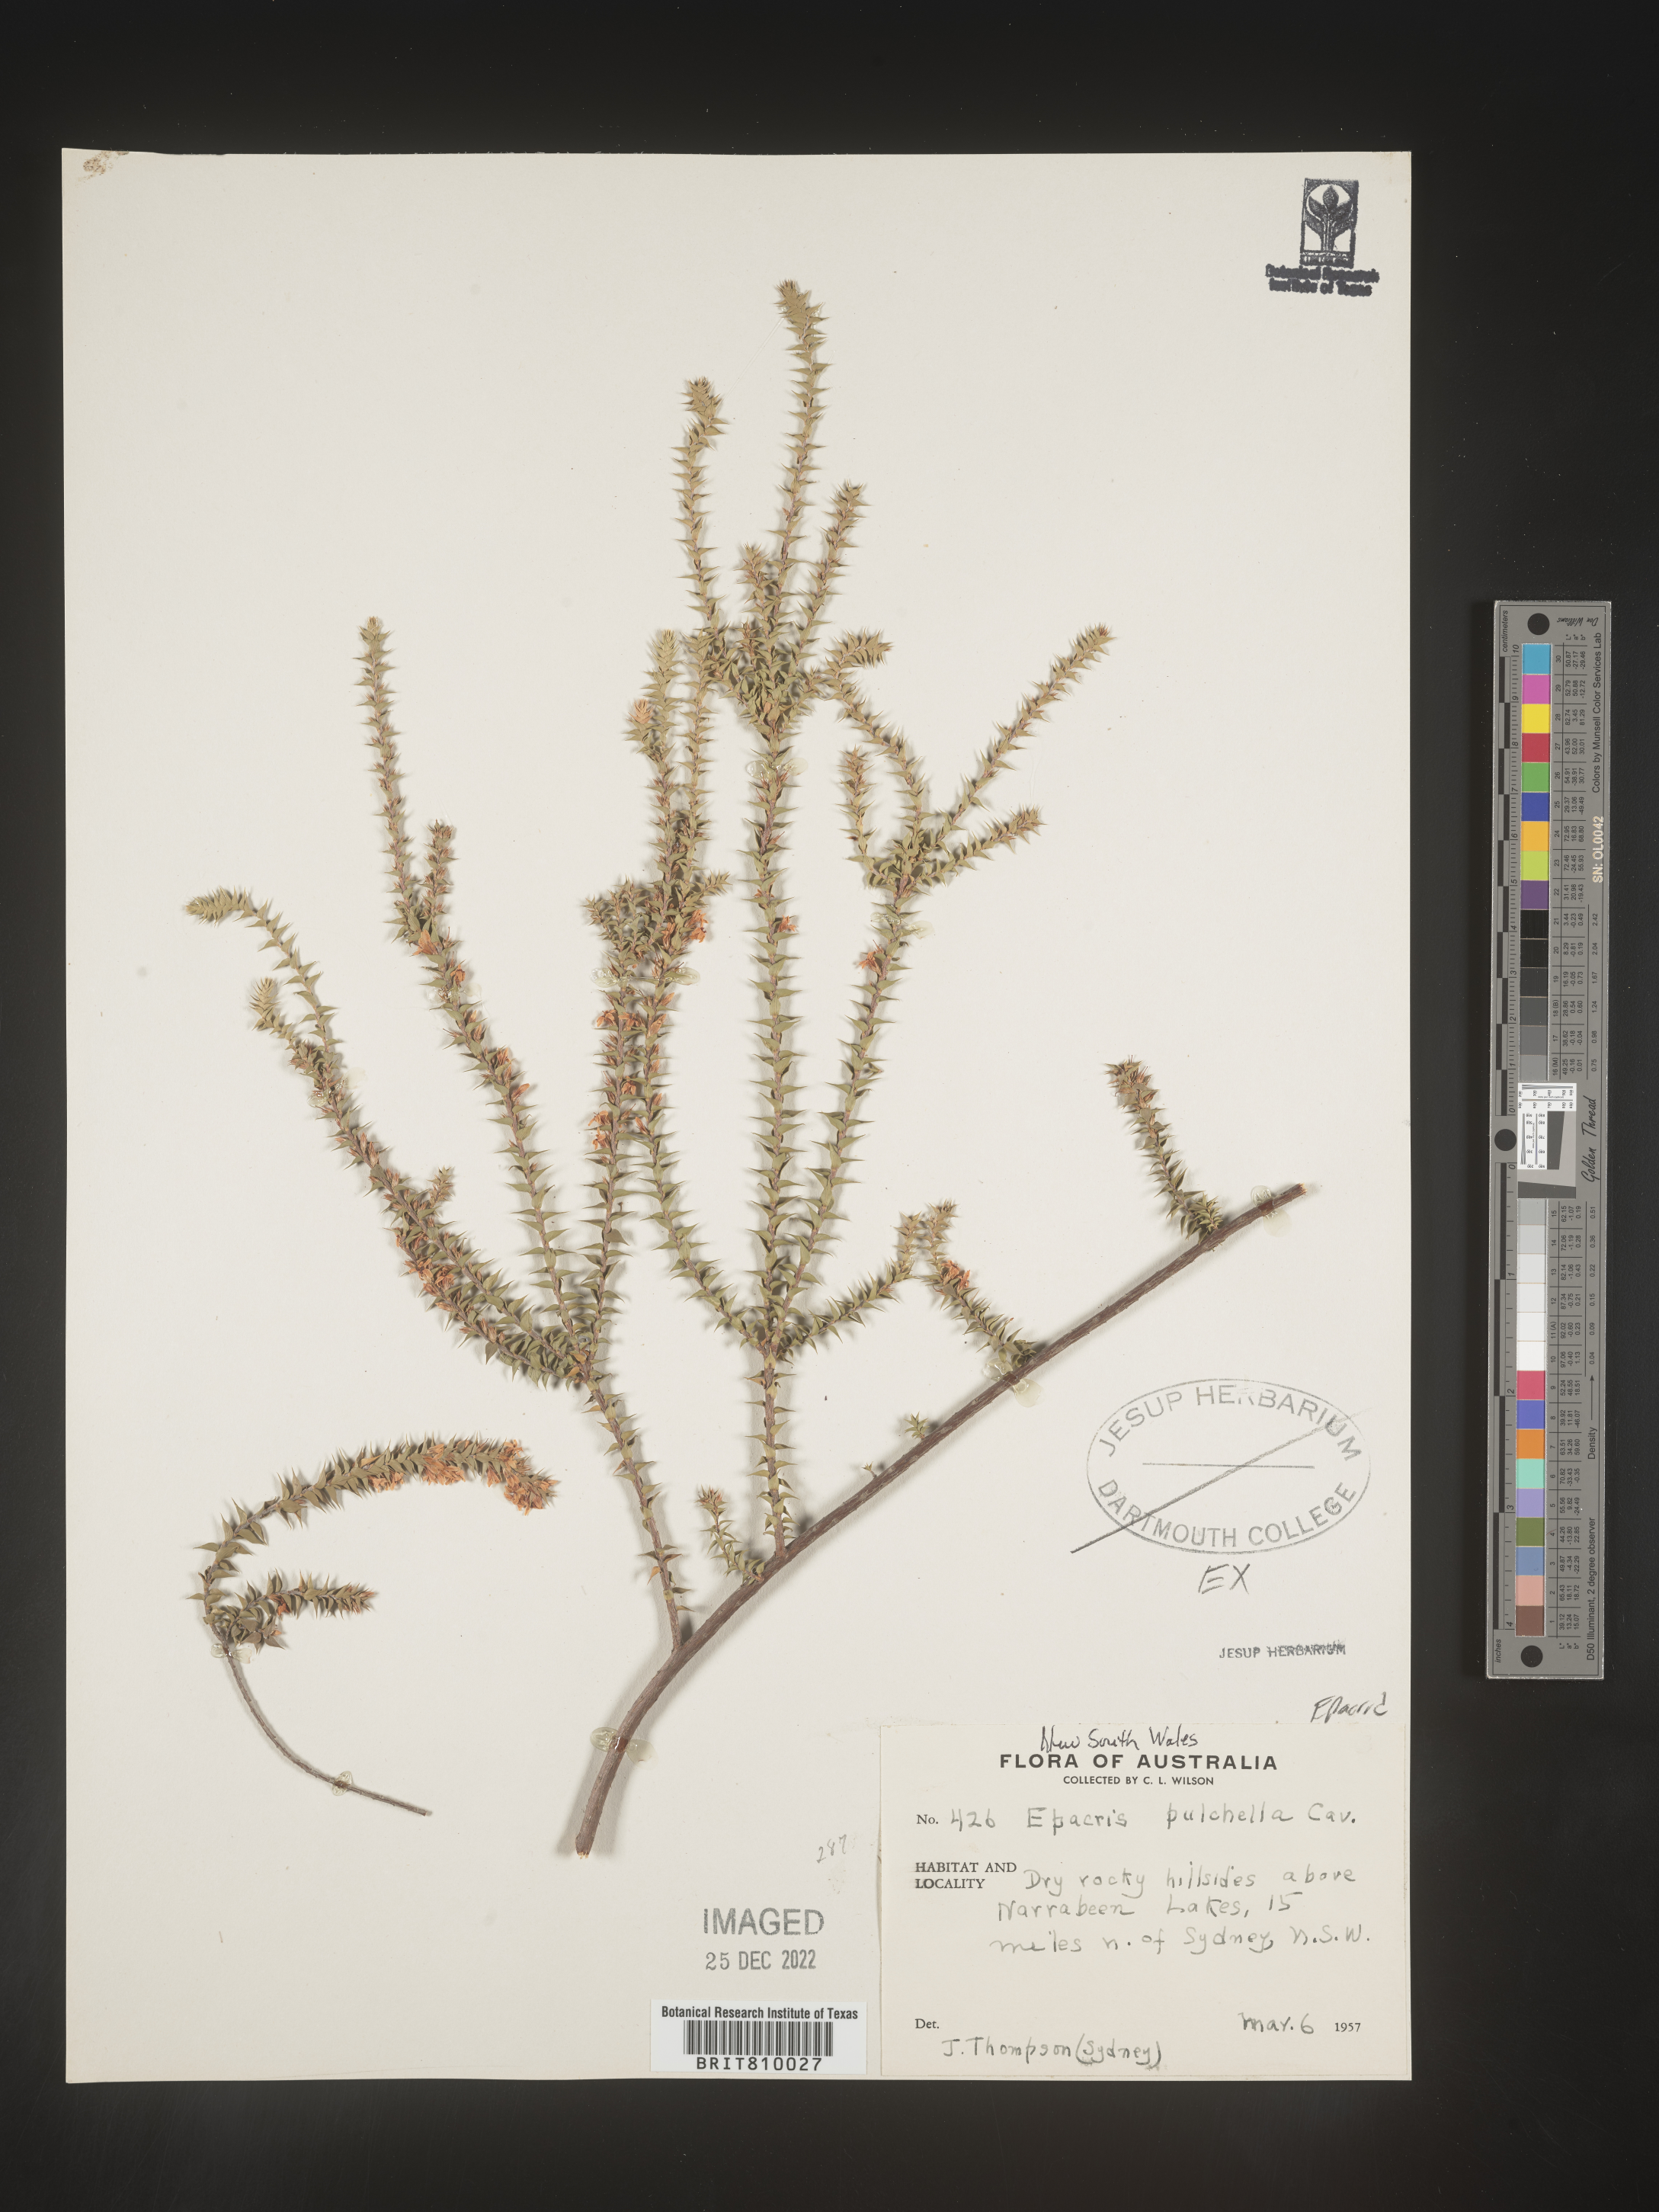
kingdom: Plantae
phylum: Tracheophyta
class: Magnoliopsida
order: Ericales
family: Ericaceae
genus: Epacris
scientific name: Epacris
